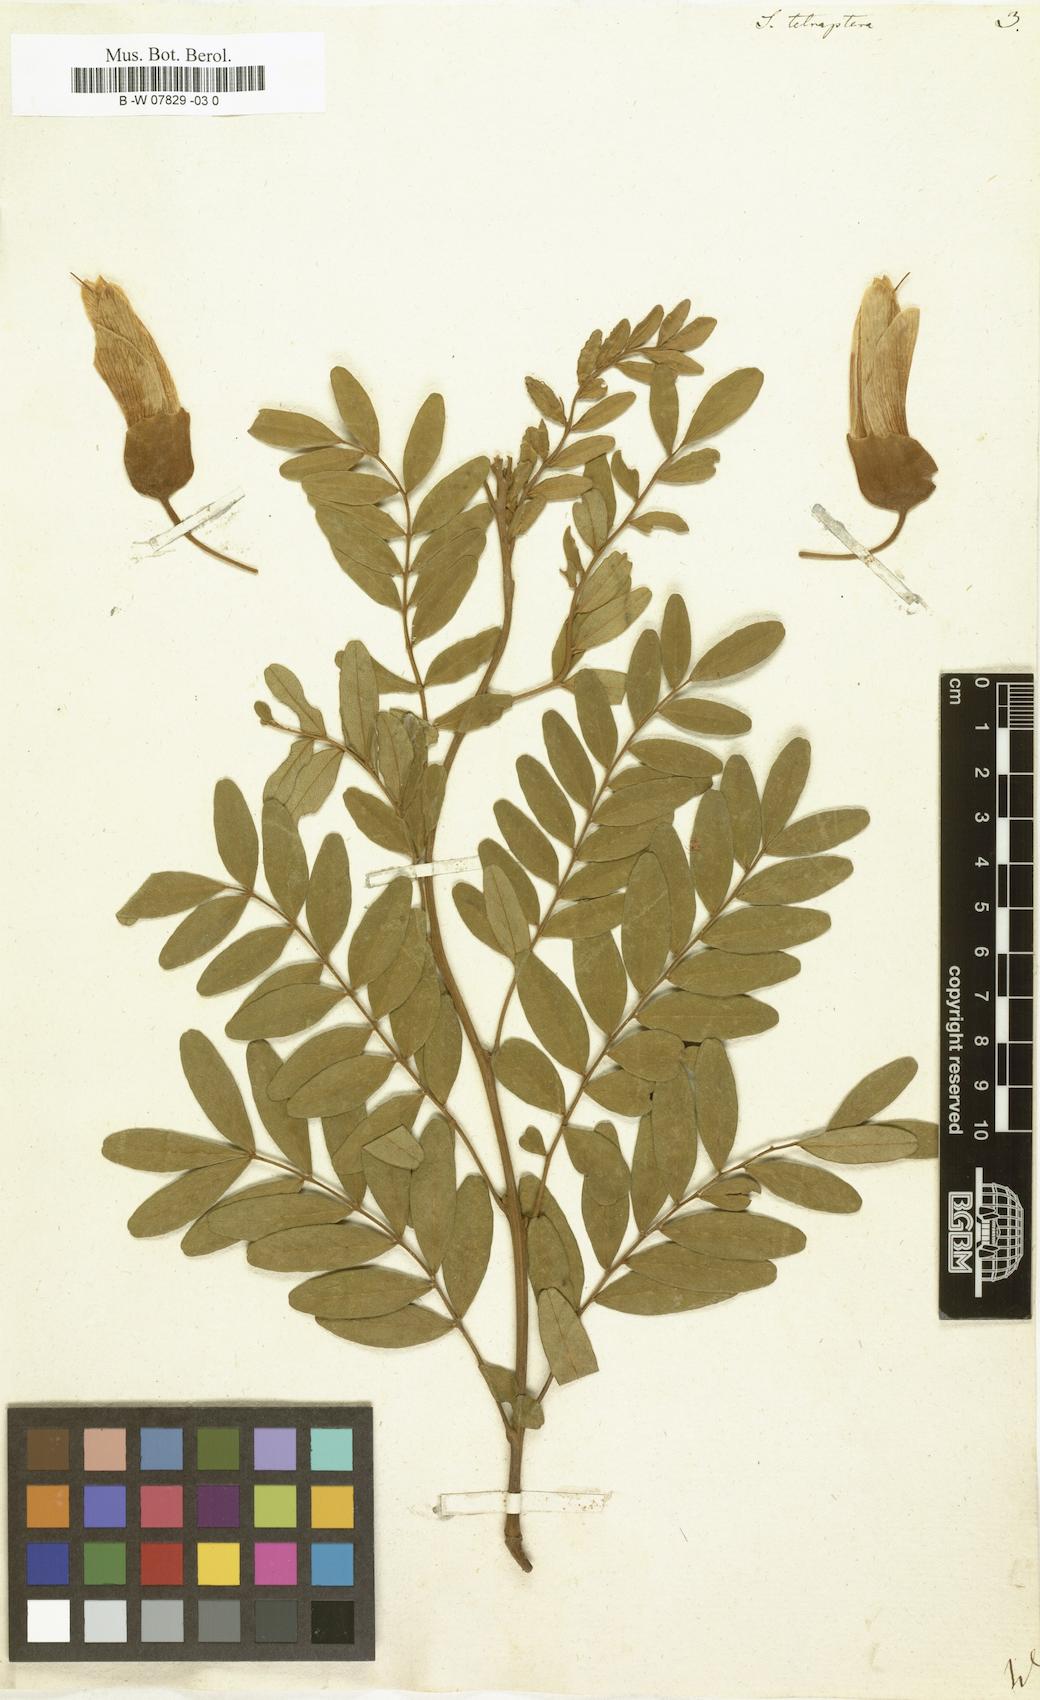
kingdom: Plantae
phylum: Tracheophyta
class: Magnoliopsida
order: Fabales
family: Fabaceae
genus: Sophora
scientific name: Sophora tetraptera
